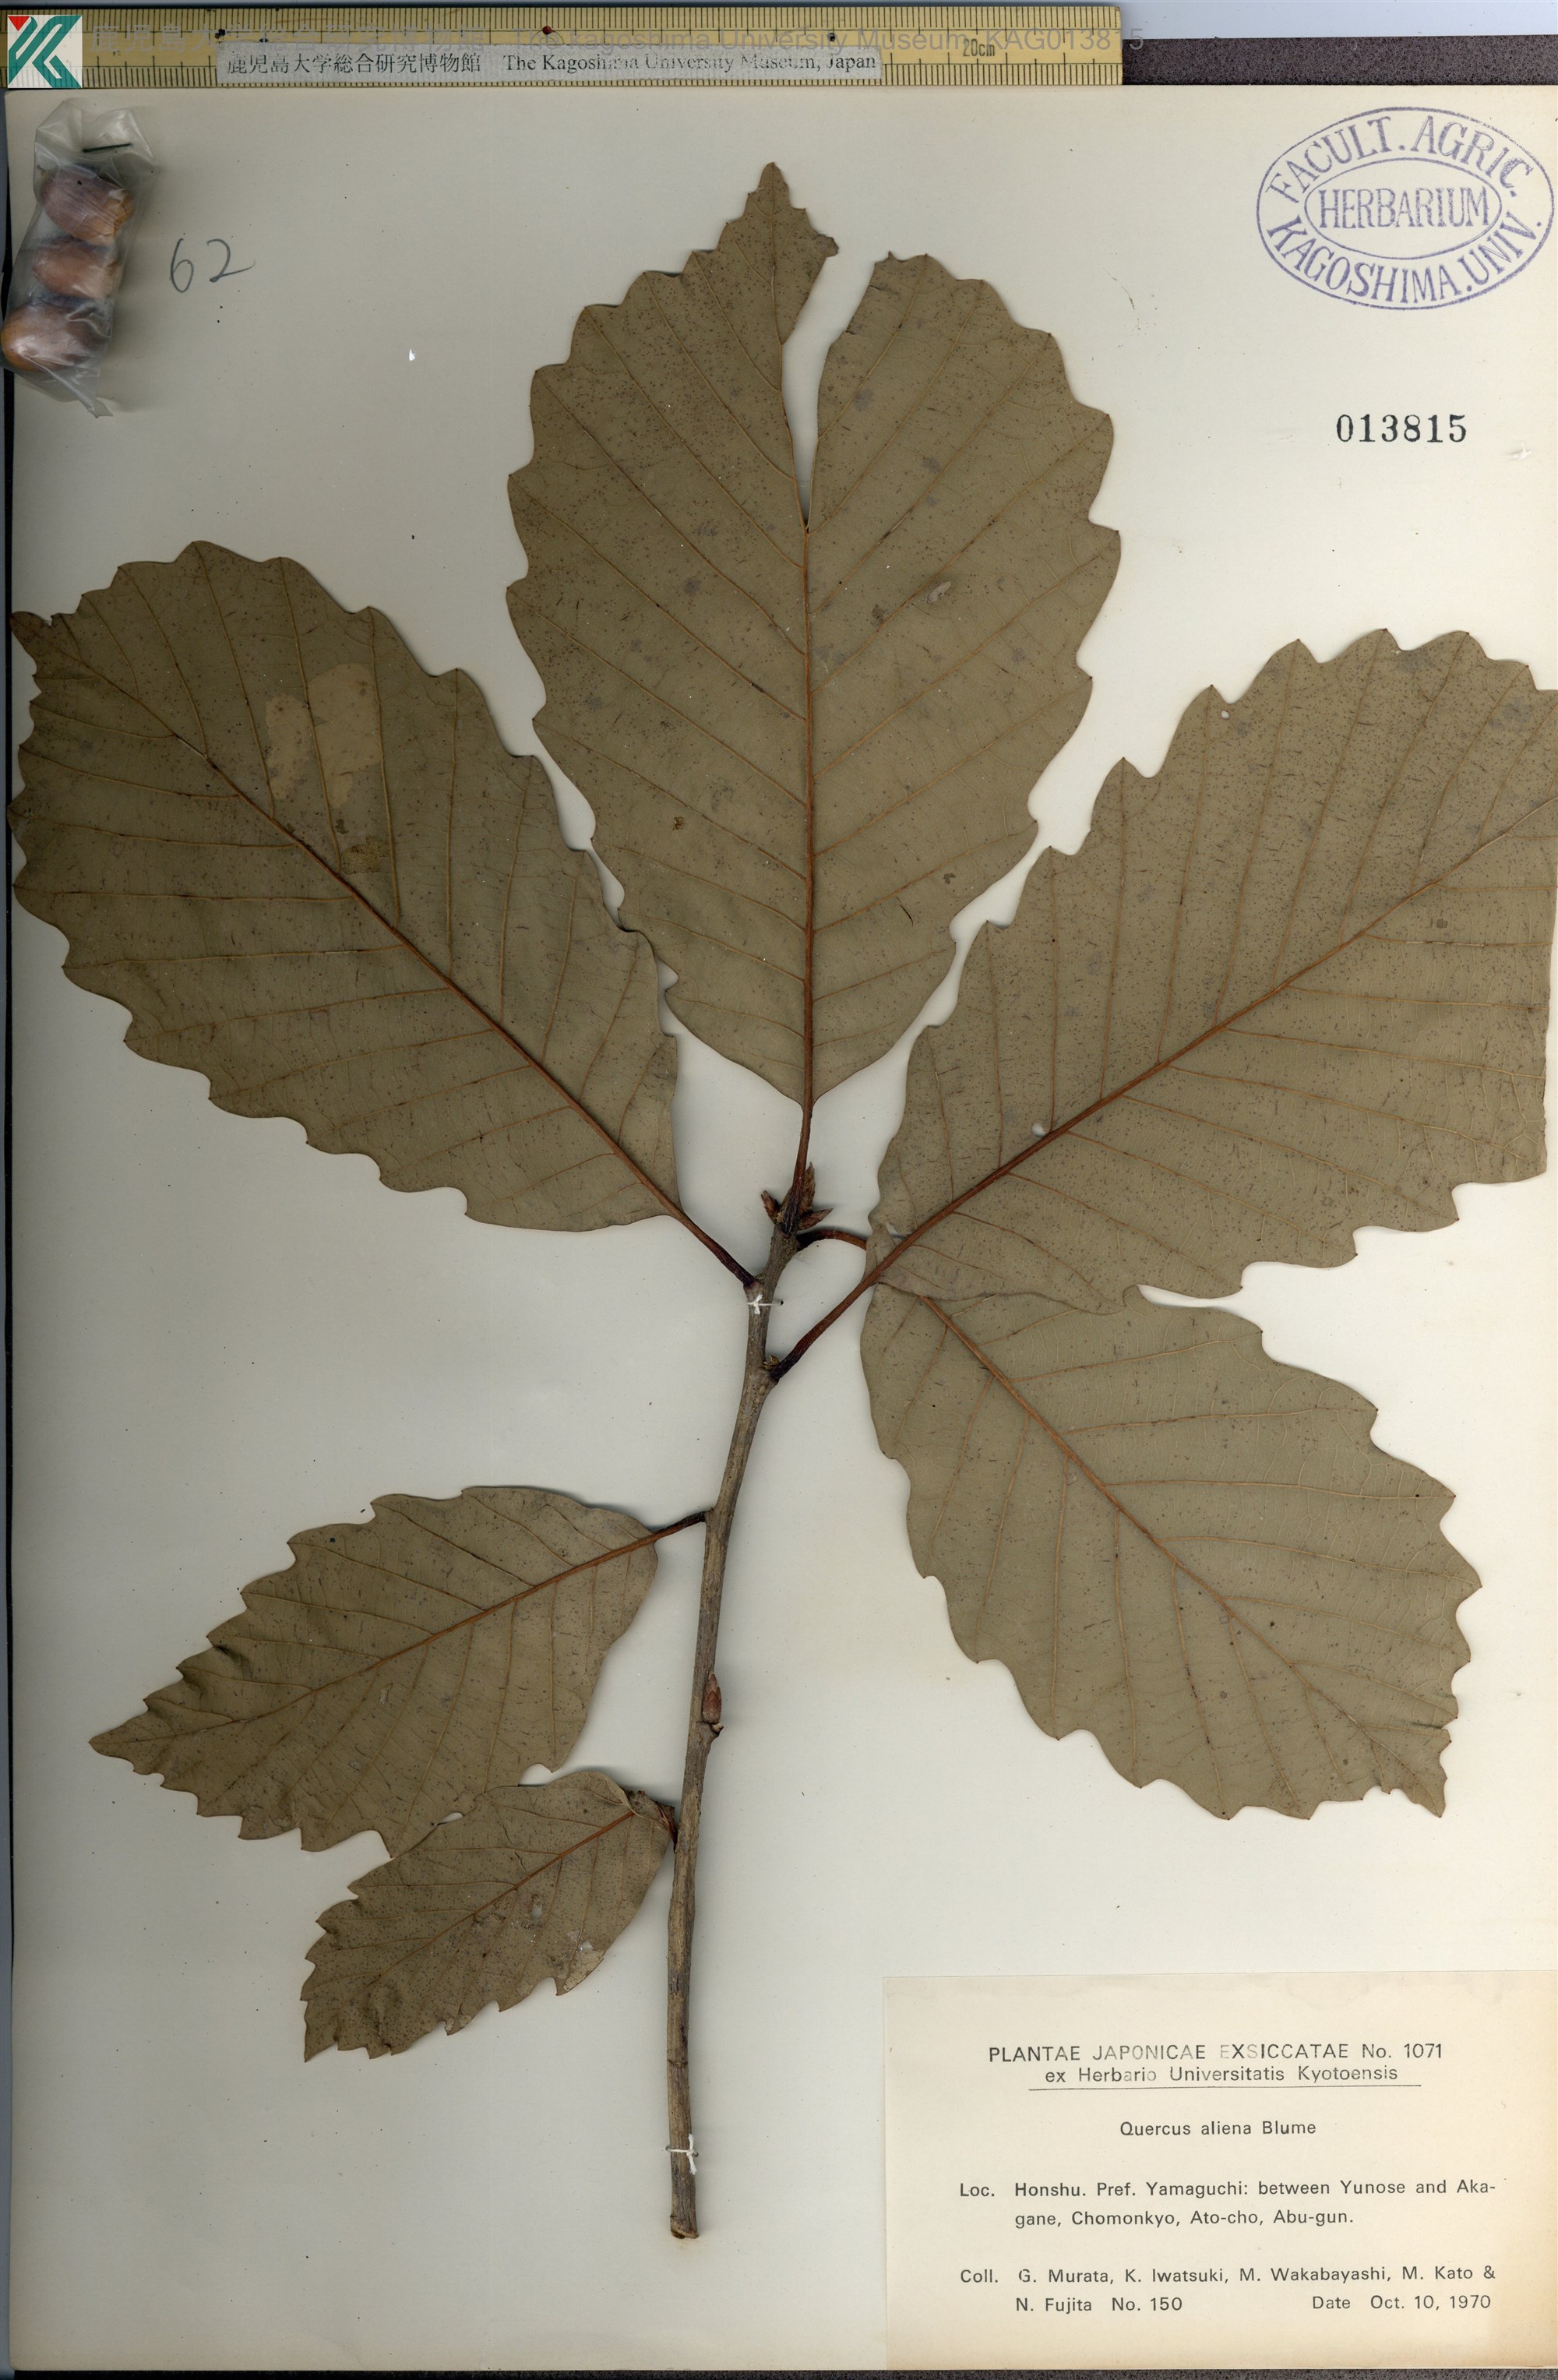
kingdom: Plantae
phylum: Tracheophyta
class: Magnoliopsida
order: Fagales
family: Fagaceae
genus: Quercus
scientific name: Quercus aliena
